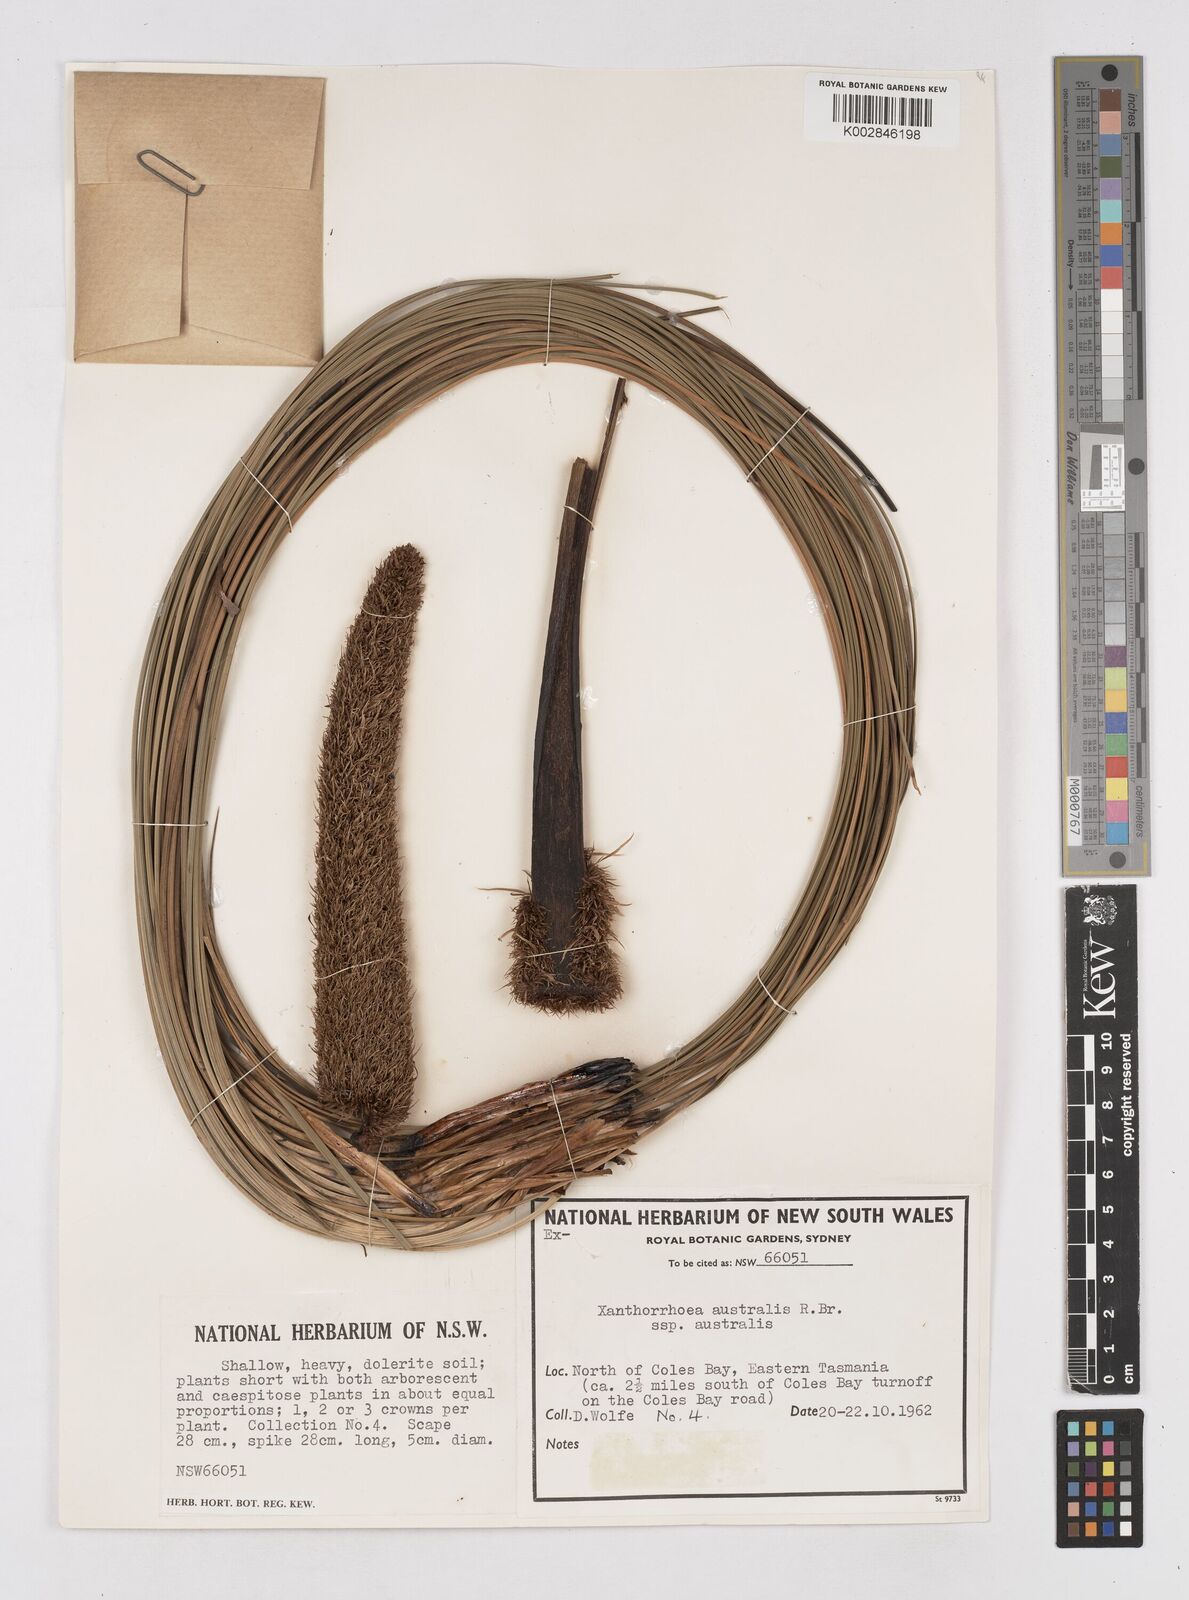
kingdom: Plantae
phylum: Tracheophyta
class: Liliopsida
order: Asparagales
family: Asphodelaceae
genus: Xanthorrhoea
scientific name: Xanthorrhoea australis
